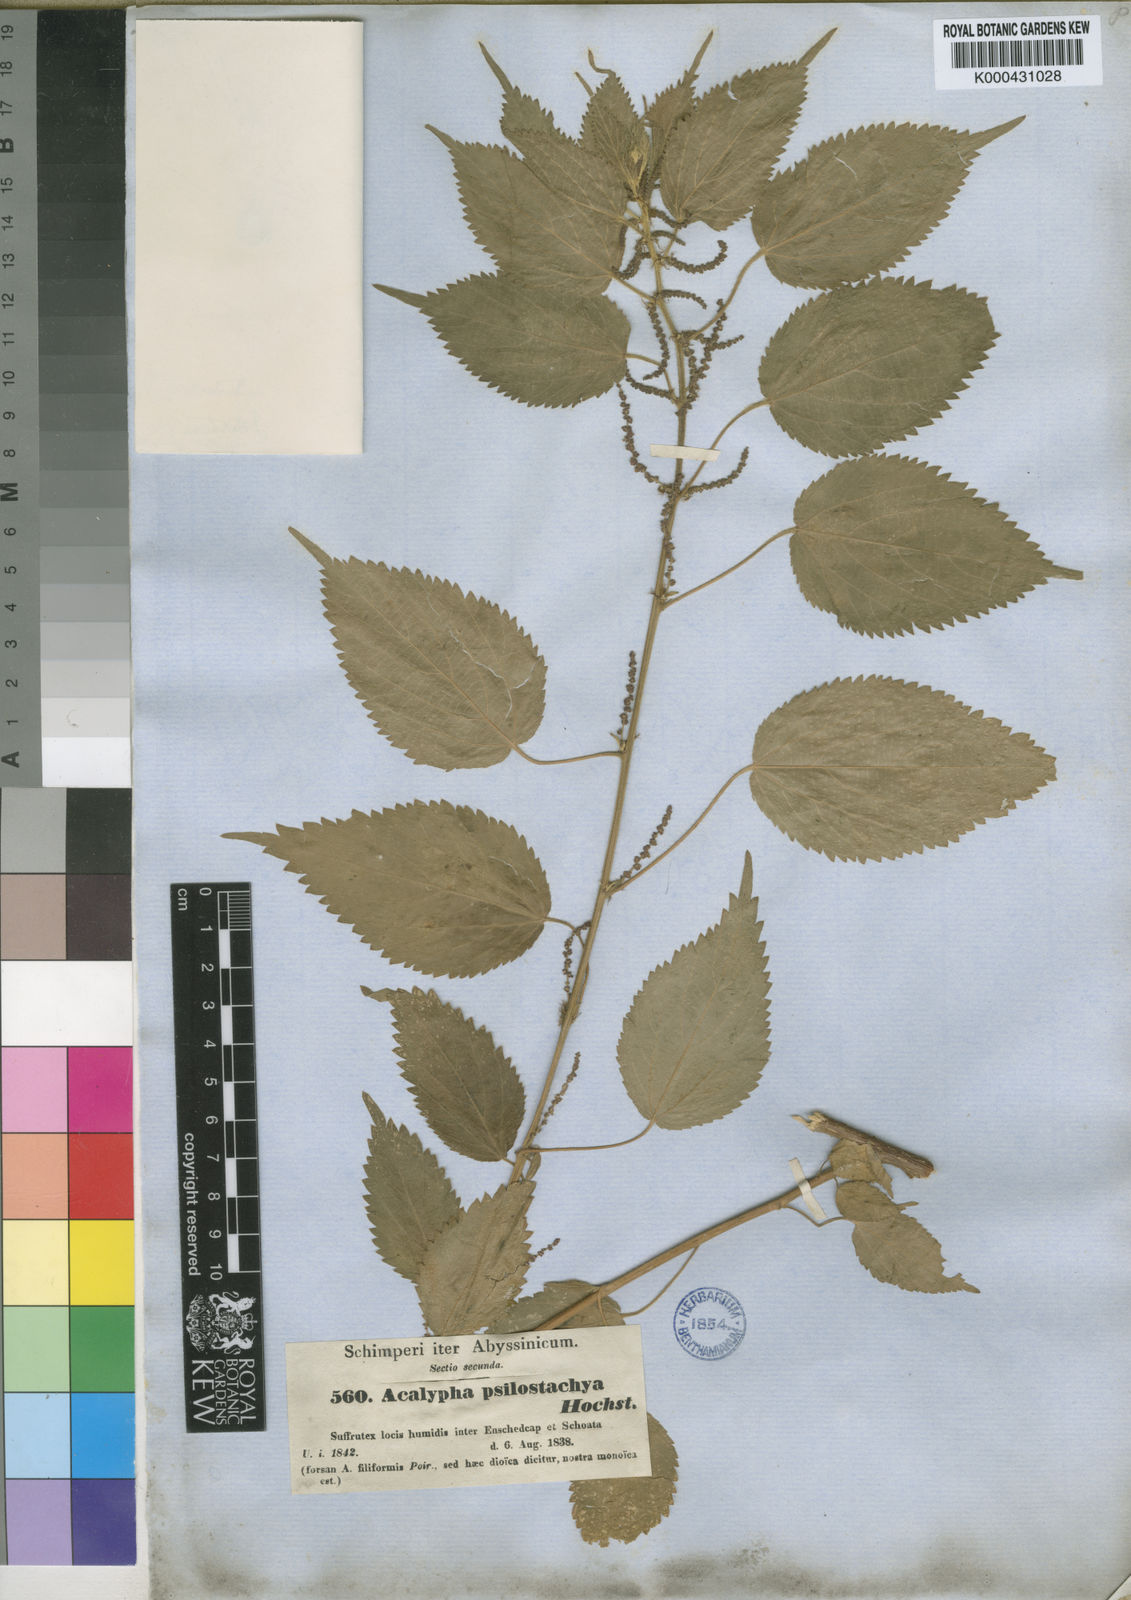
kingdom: Plantae
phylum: Tracheophyta
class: Magnoliopsida
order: Malpighiales
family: Euphorbiaceae
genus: Acalypha
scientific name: Acalypha psilostachya
